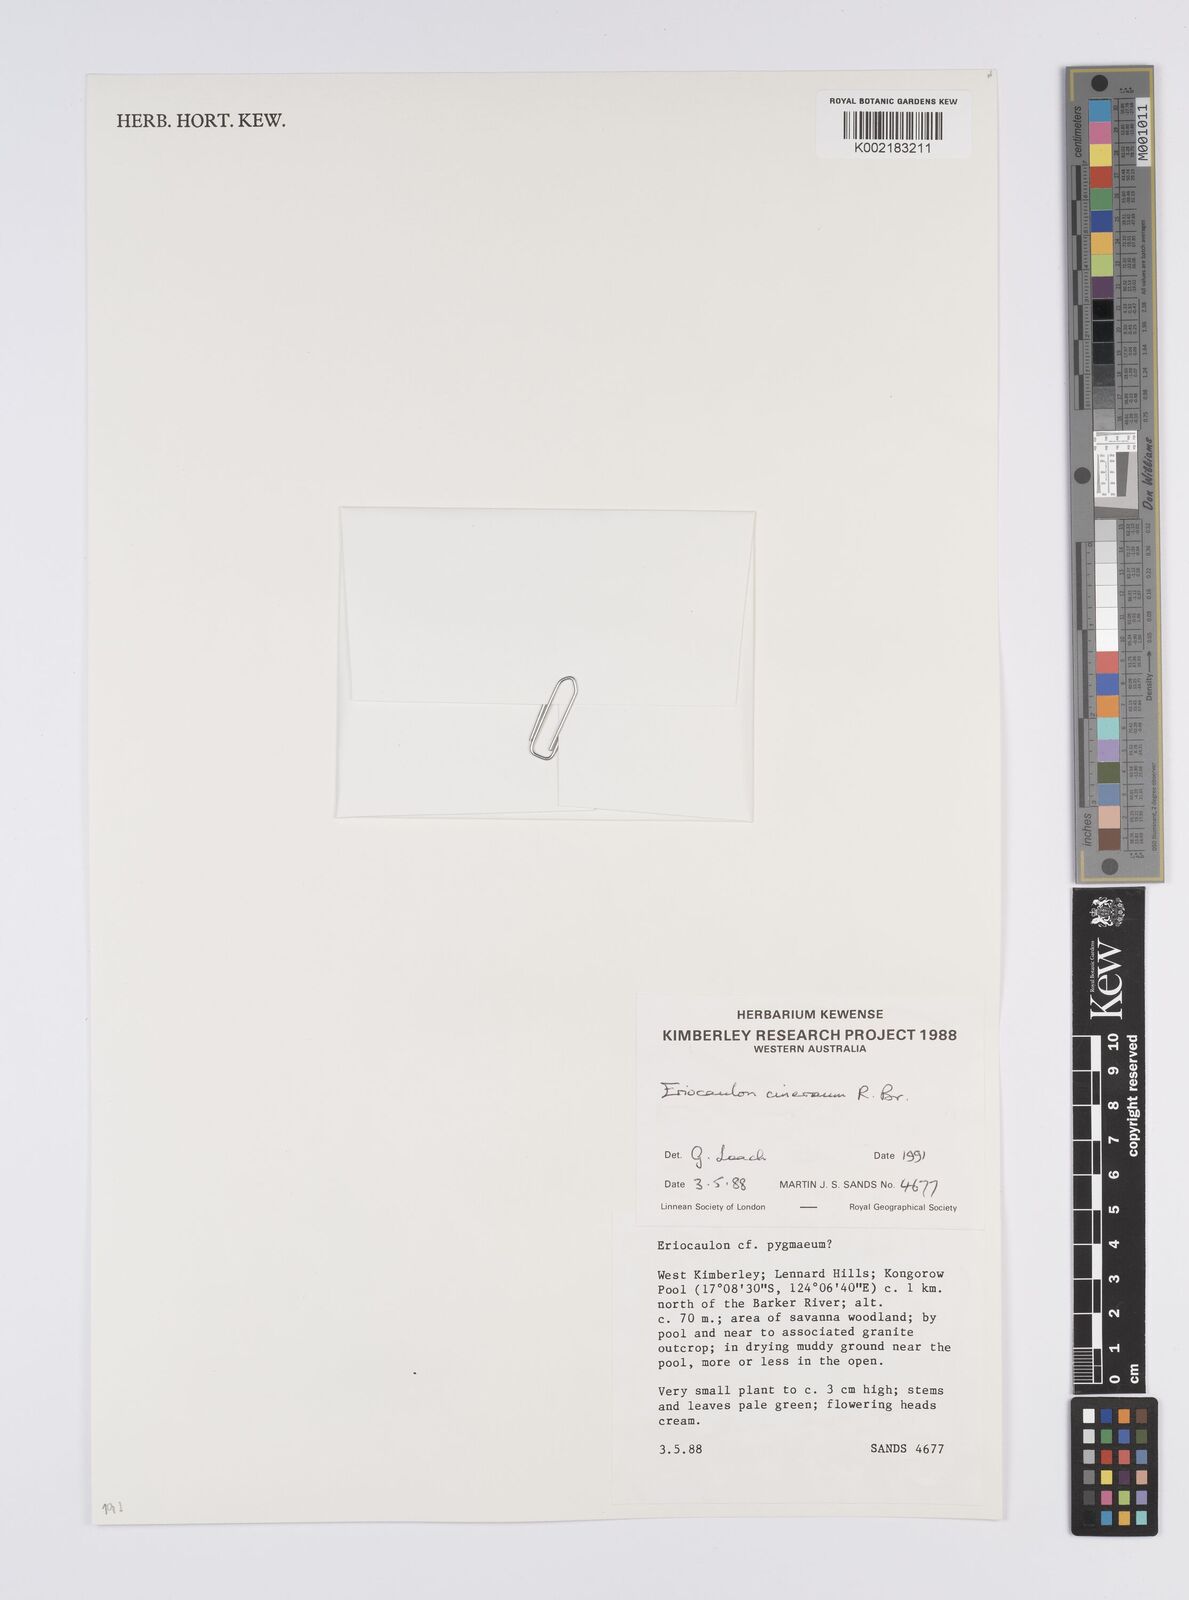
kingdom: Plantae
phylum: Tracheophyta
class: Liliopsida
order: Poales
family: Eriocaulaceae
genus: Eriocaulon
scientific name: Eriocaulon cinereum
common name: Ashy pipewort
